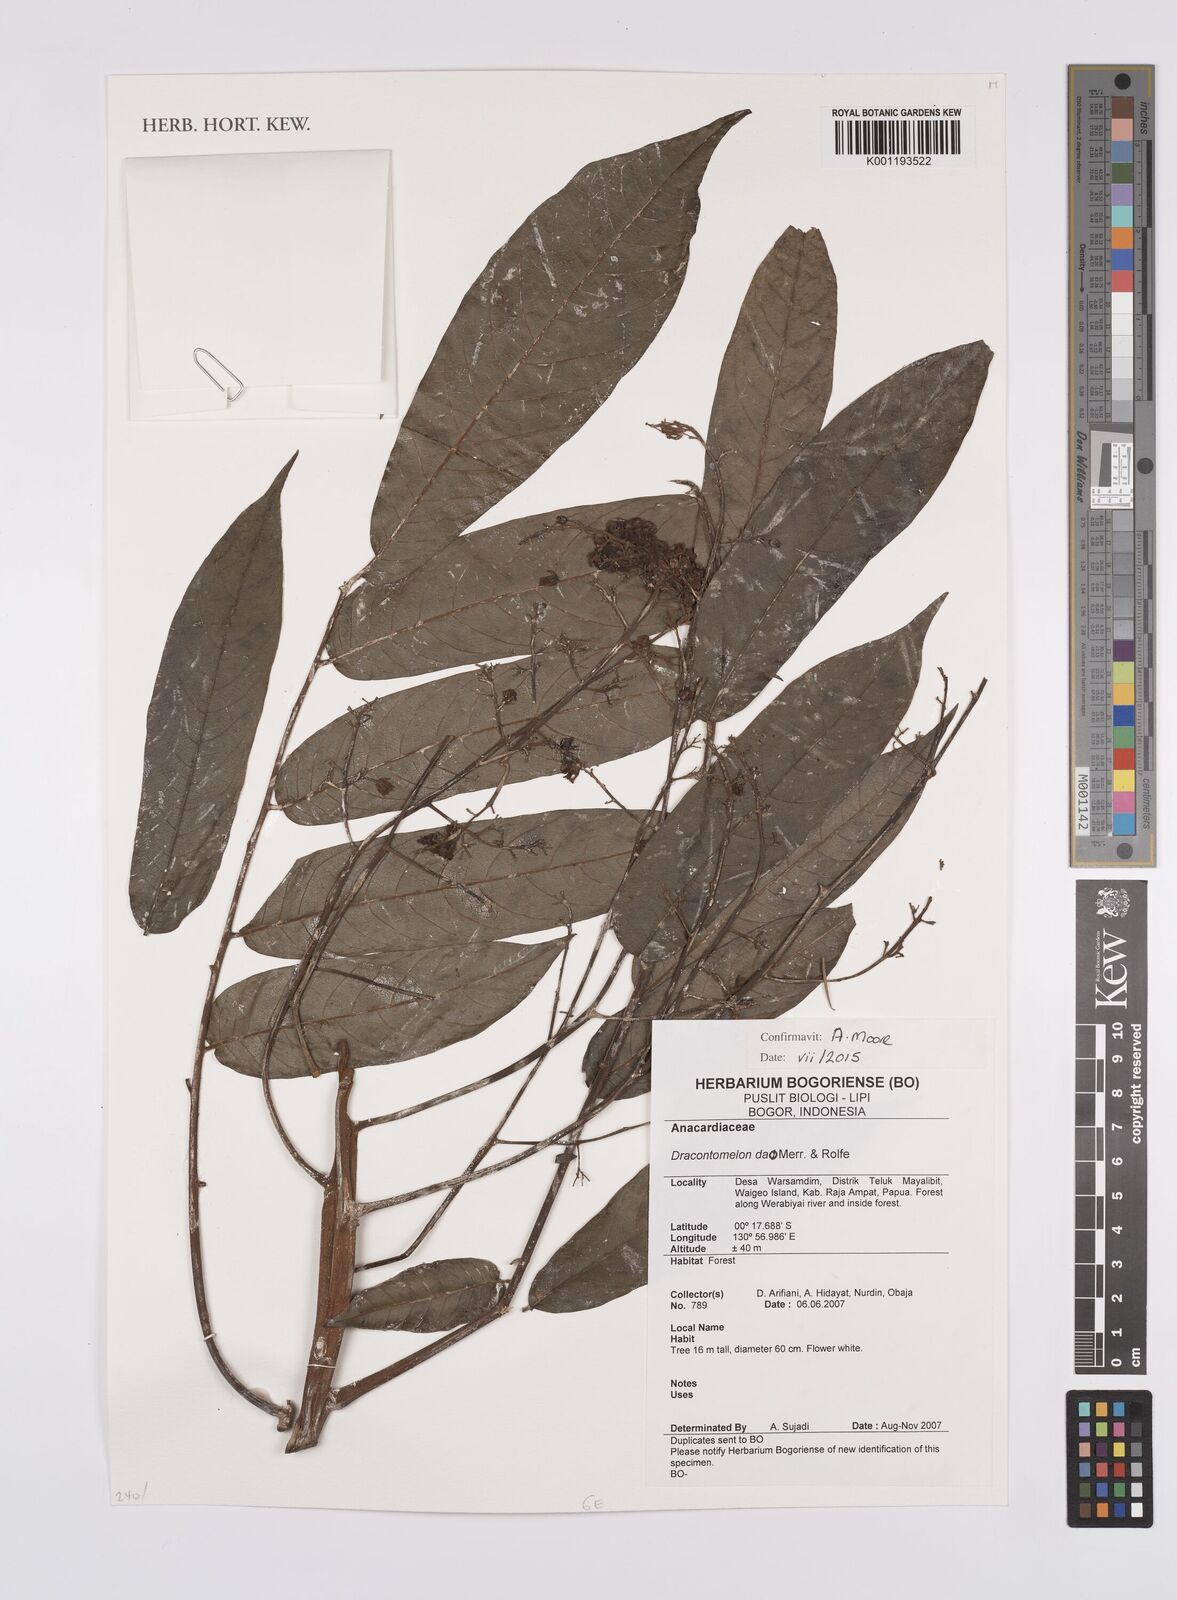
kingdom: Plantae
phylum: Tracheophyta
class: Magnoliopsida
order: Sapindales
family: Anacardiaceae
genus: Dracontomelon
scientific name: Dracontomelon dao
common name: Argus pheasant-tree
